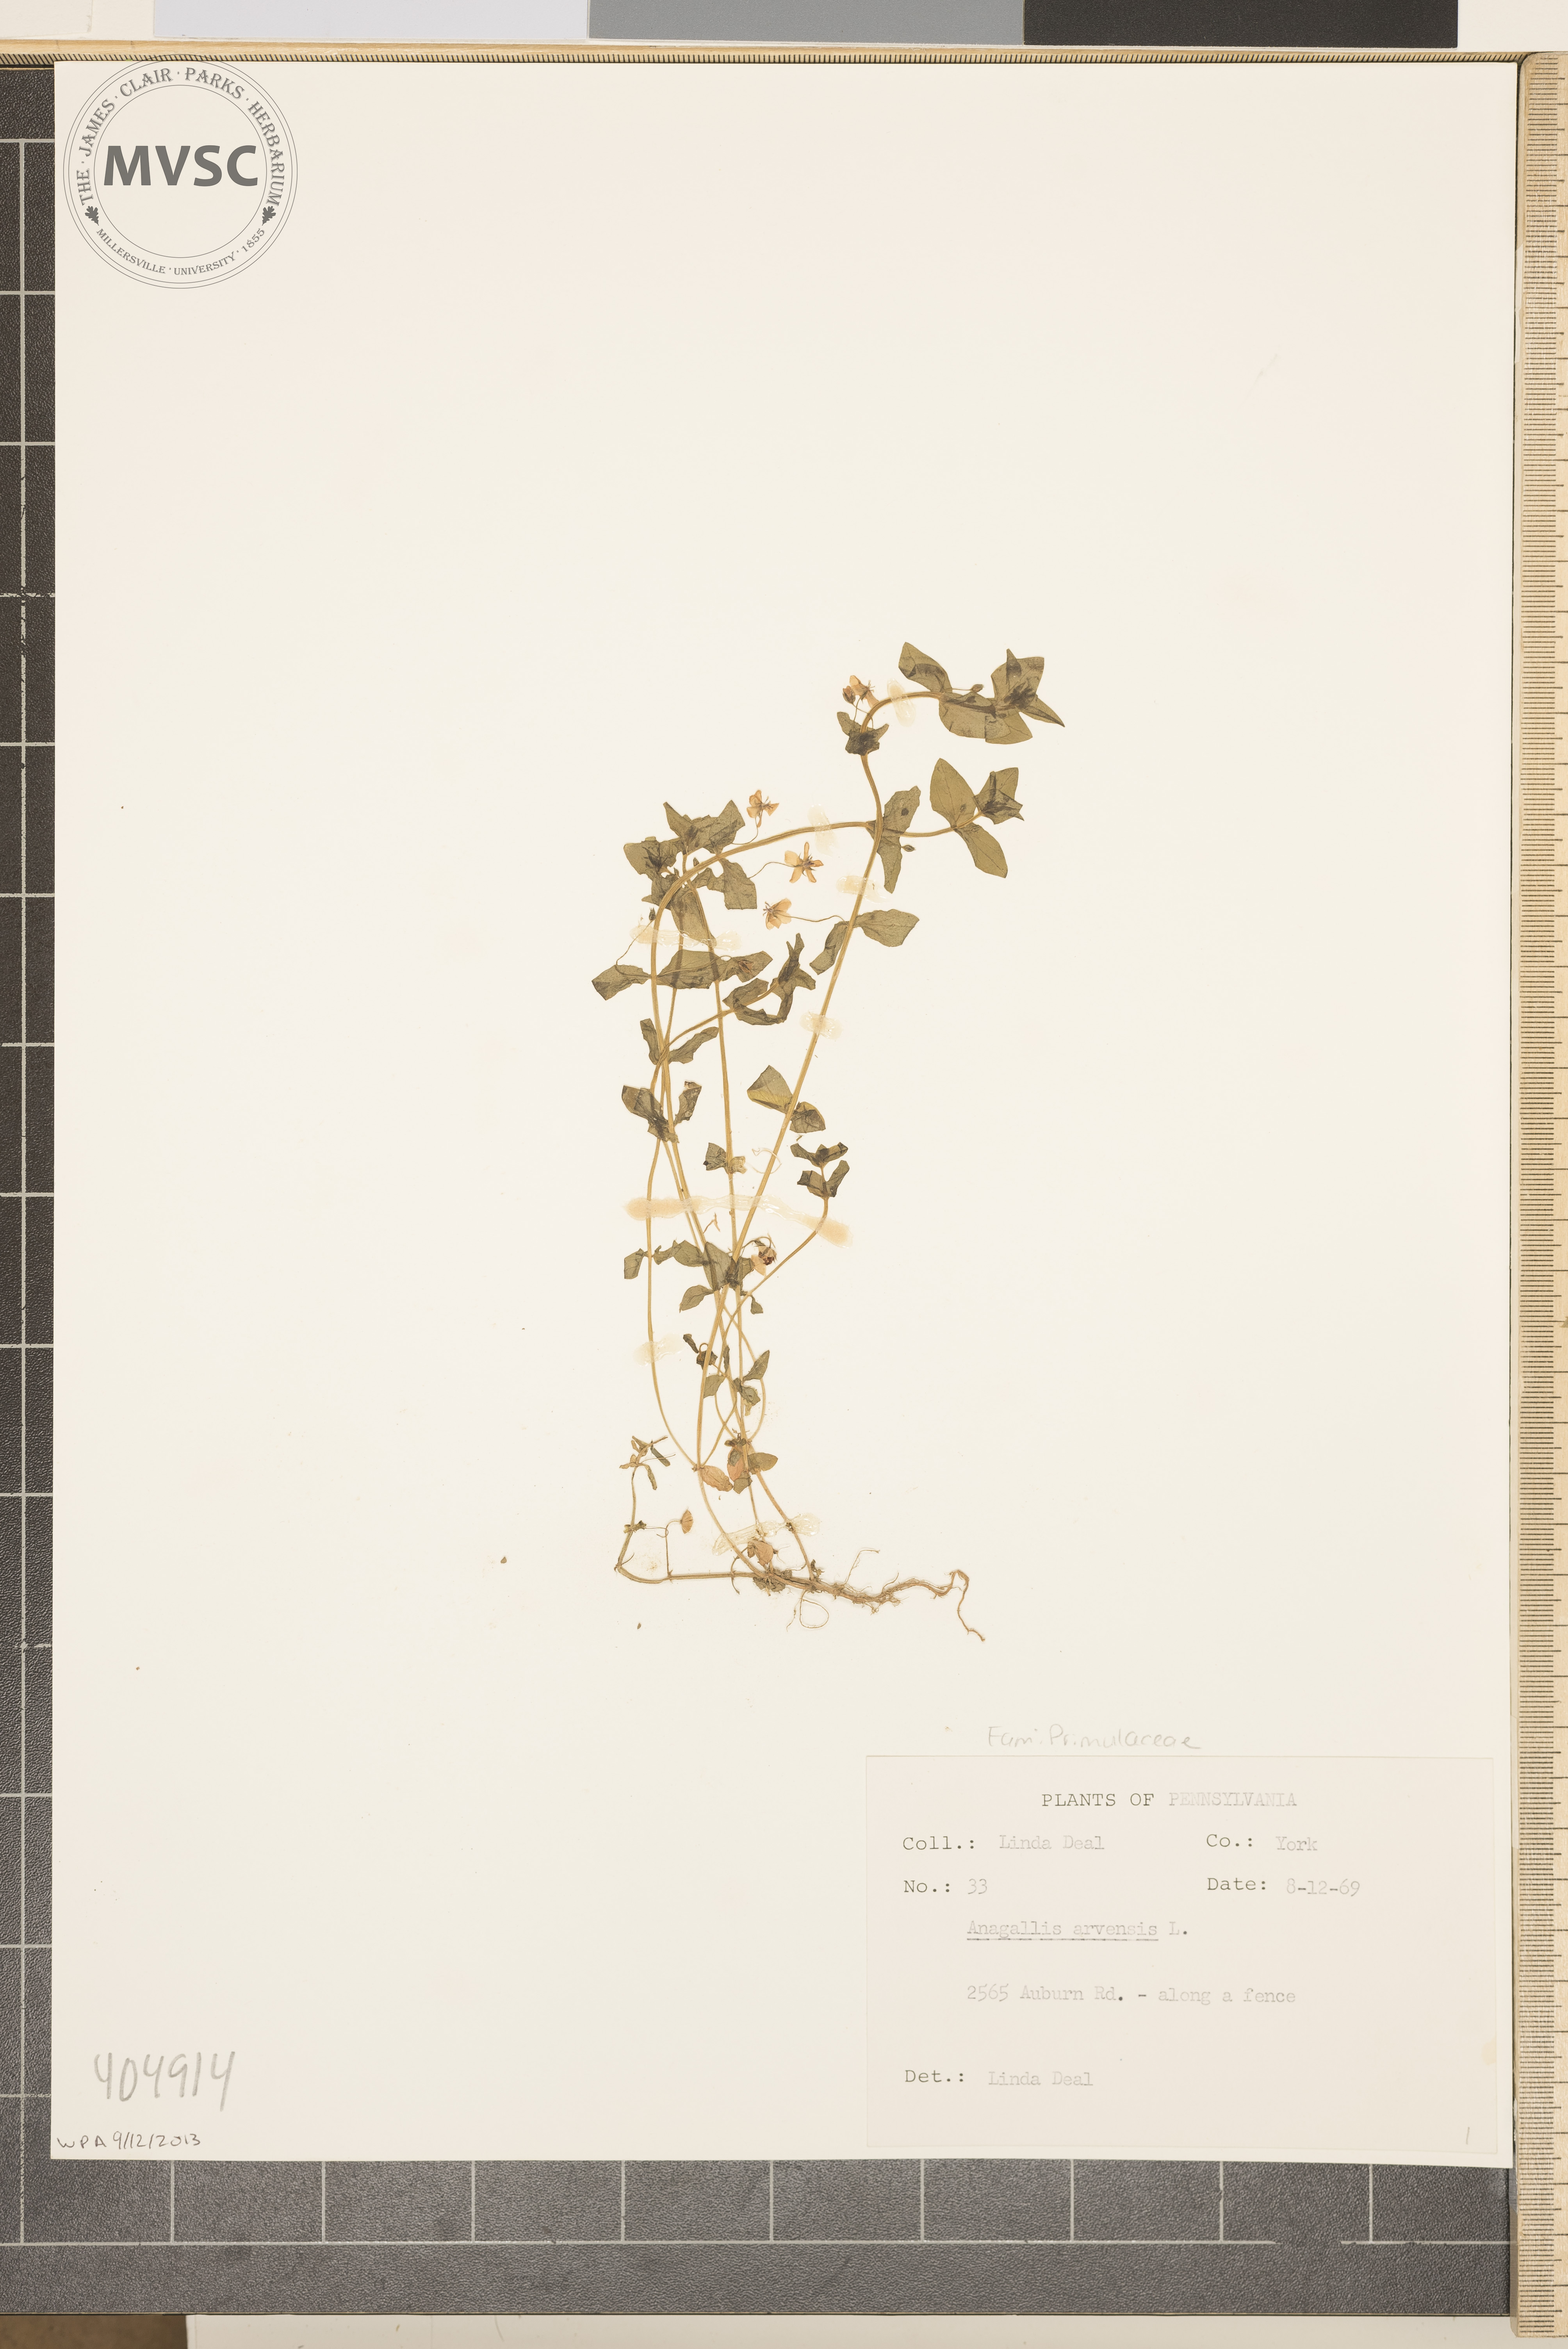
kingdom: Plantae
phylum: Tracheophyta
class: Magnoliopsida
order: Ericales
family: Primulaceae
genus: Lysimachia
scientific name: Lysimachia arvensis
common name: Scarlet pimpernel
